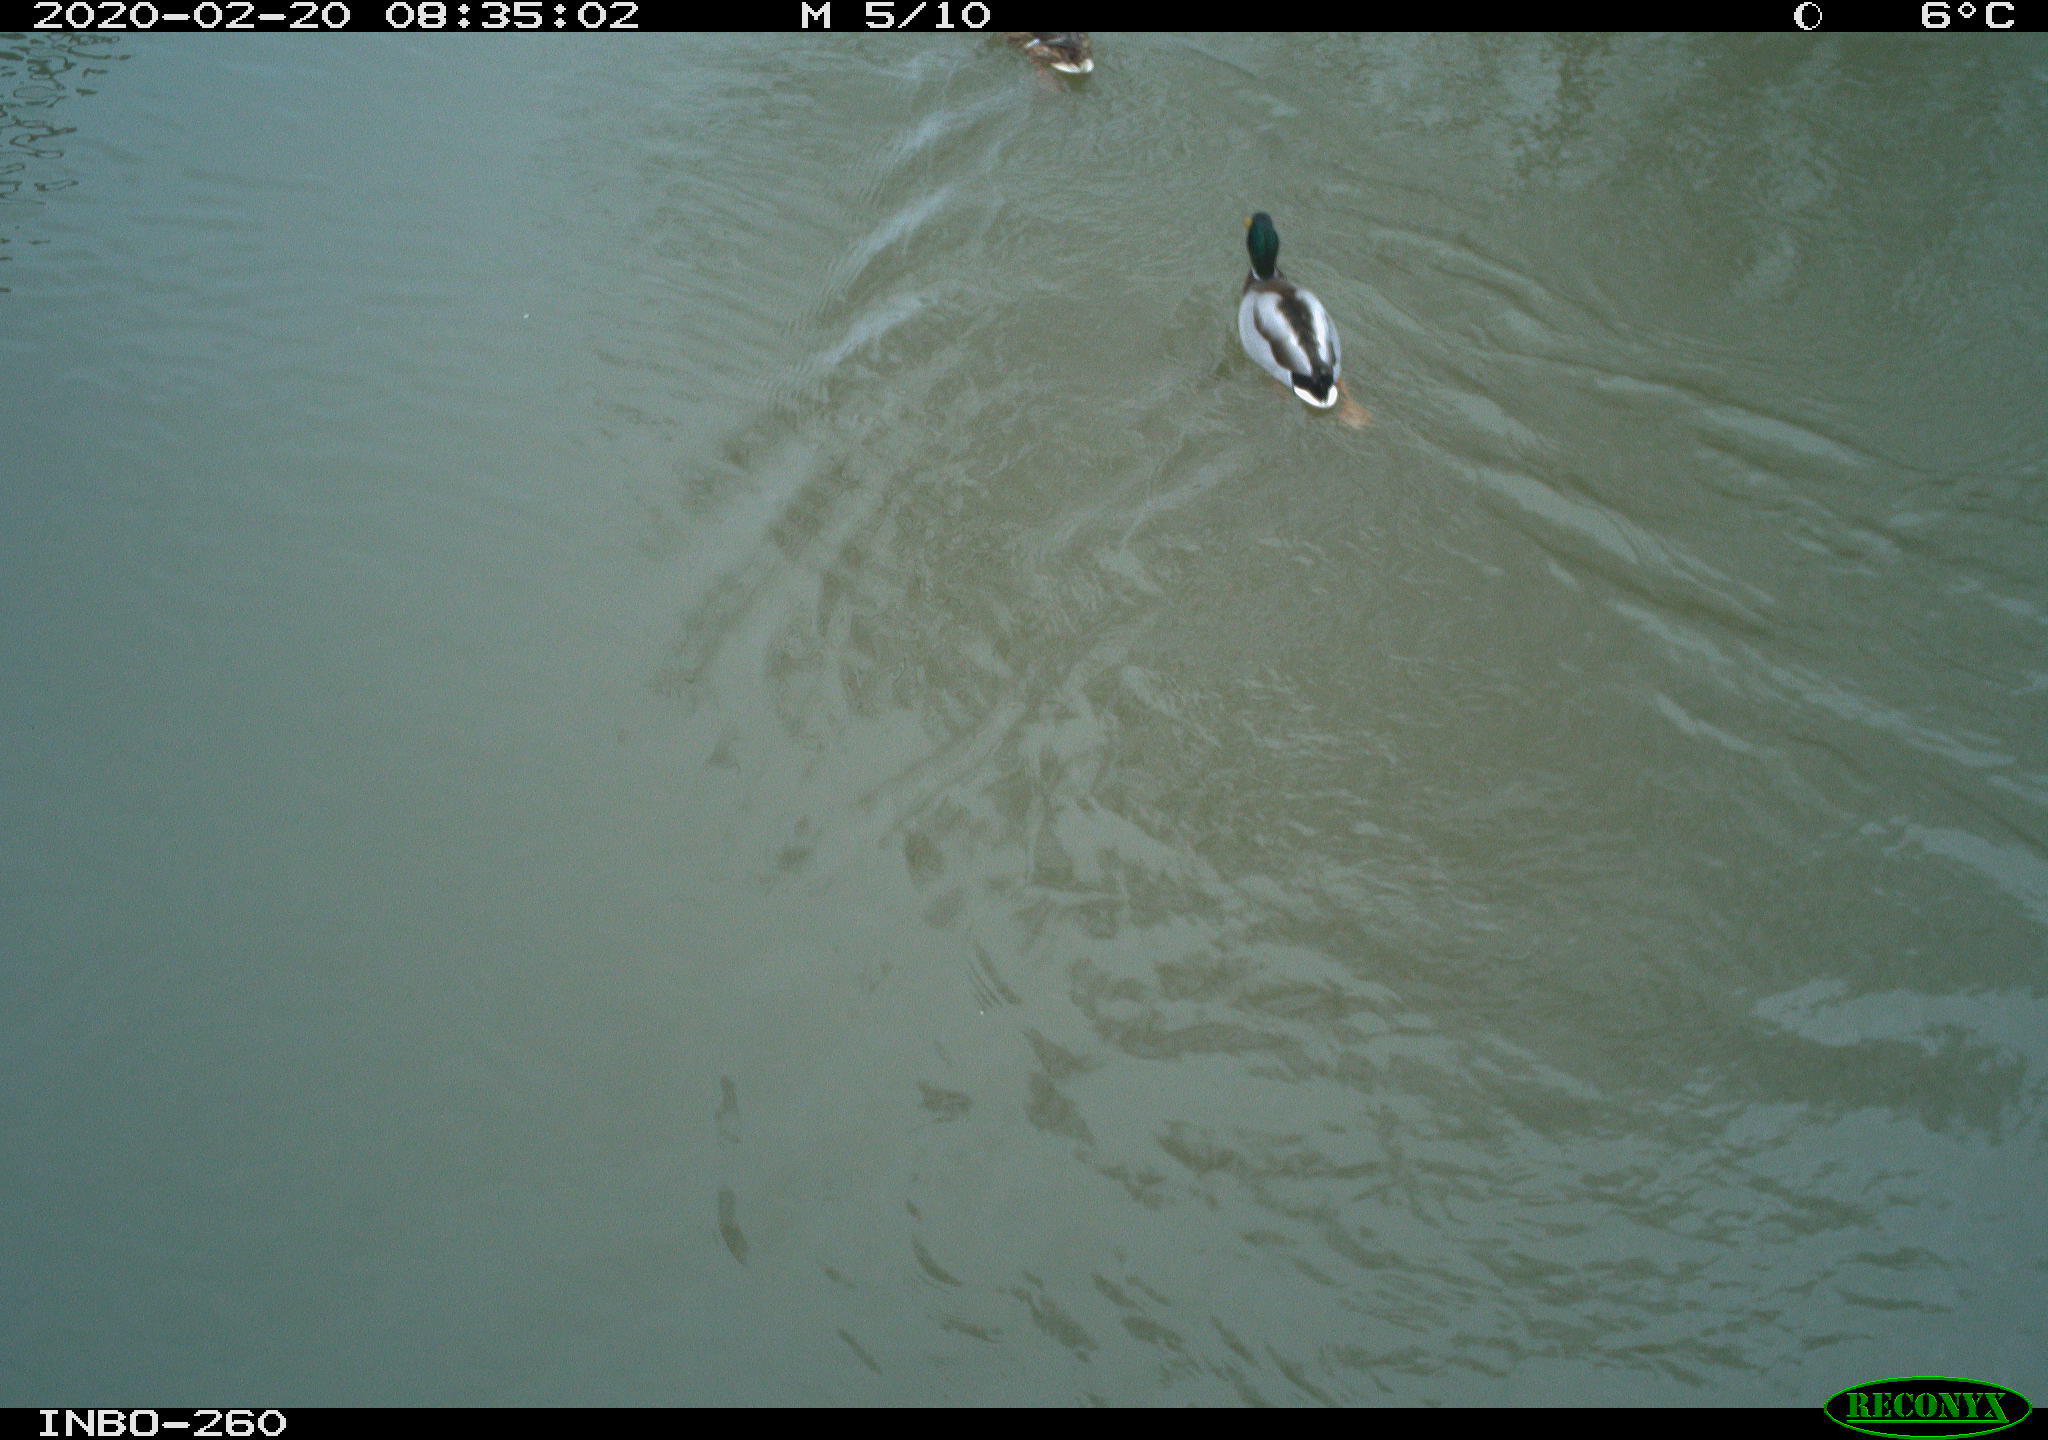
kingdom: Animalia
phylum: Chordata
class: Aves
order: Anseriformes
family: Anatidae
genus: Anas
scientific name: Anas platyrhynchos
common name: Mallard
